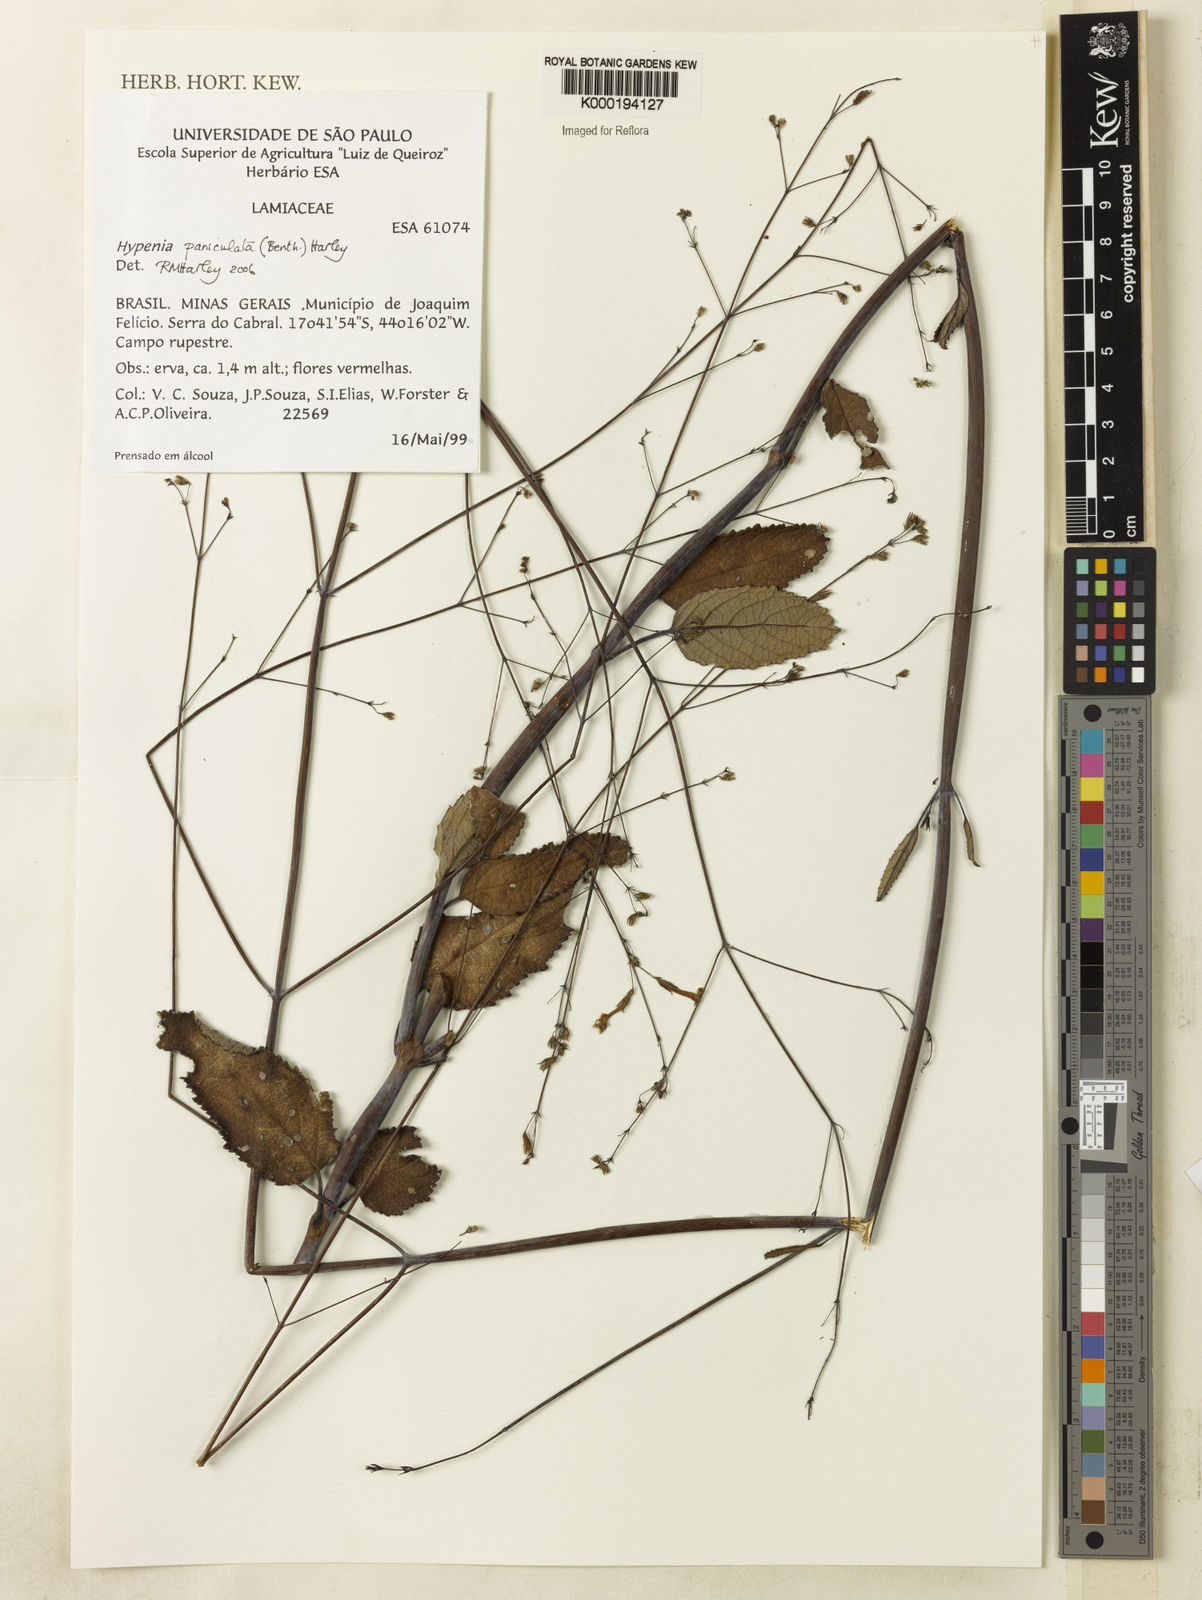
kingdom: Plantae
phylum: Tracheophyta
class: Magnoliopsida
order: Lamiales
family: Lamiaceae
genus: Hypenia
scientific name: Hypenia paniculata
